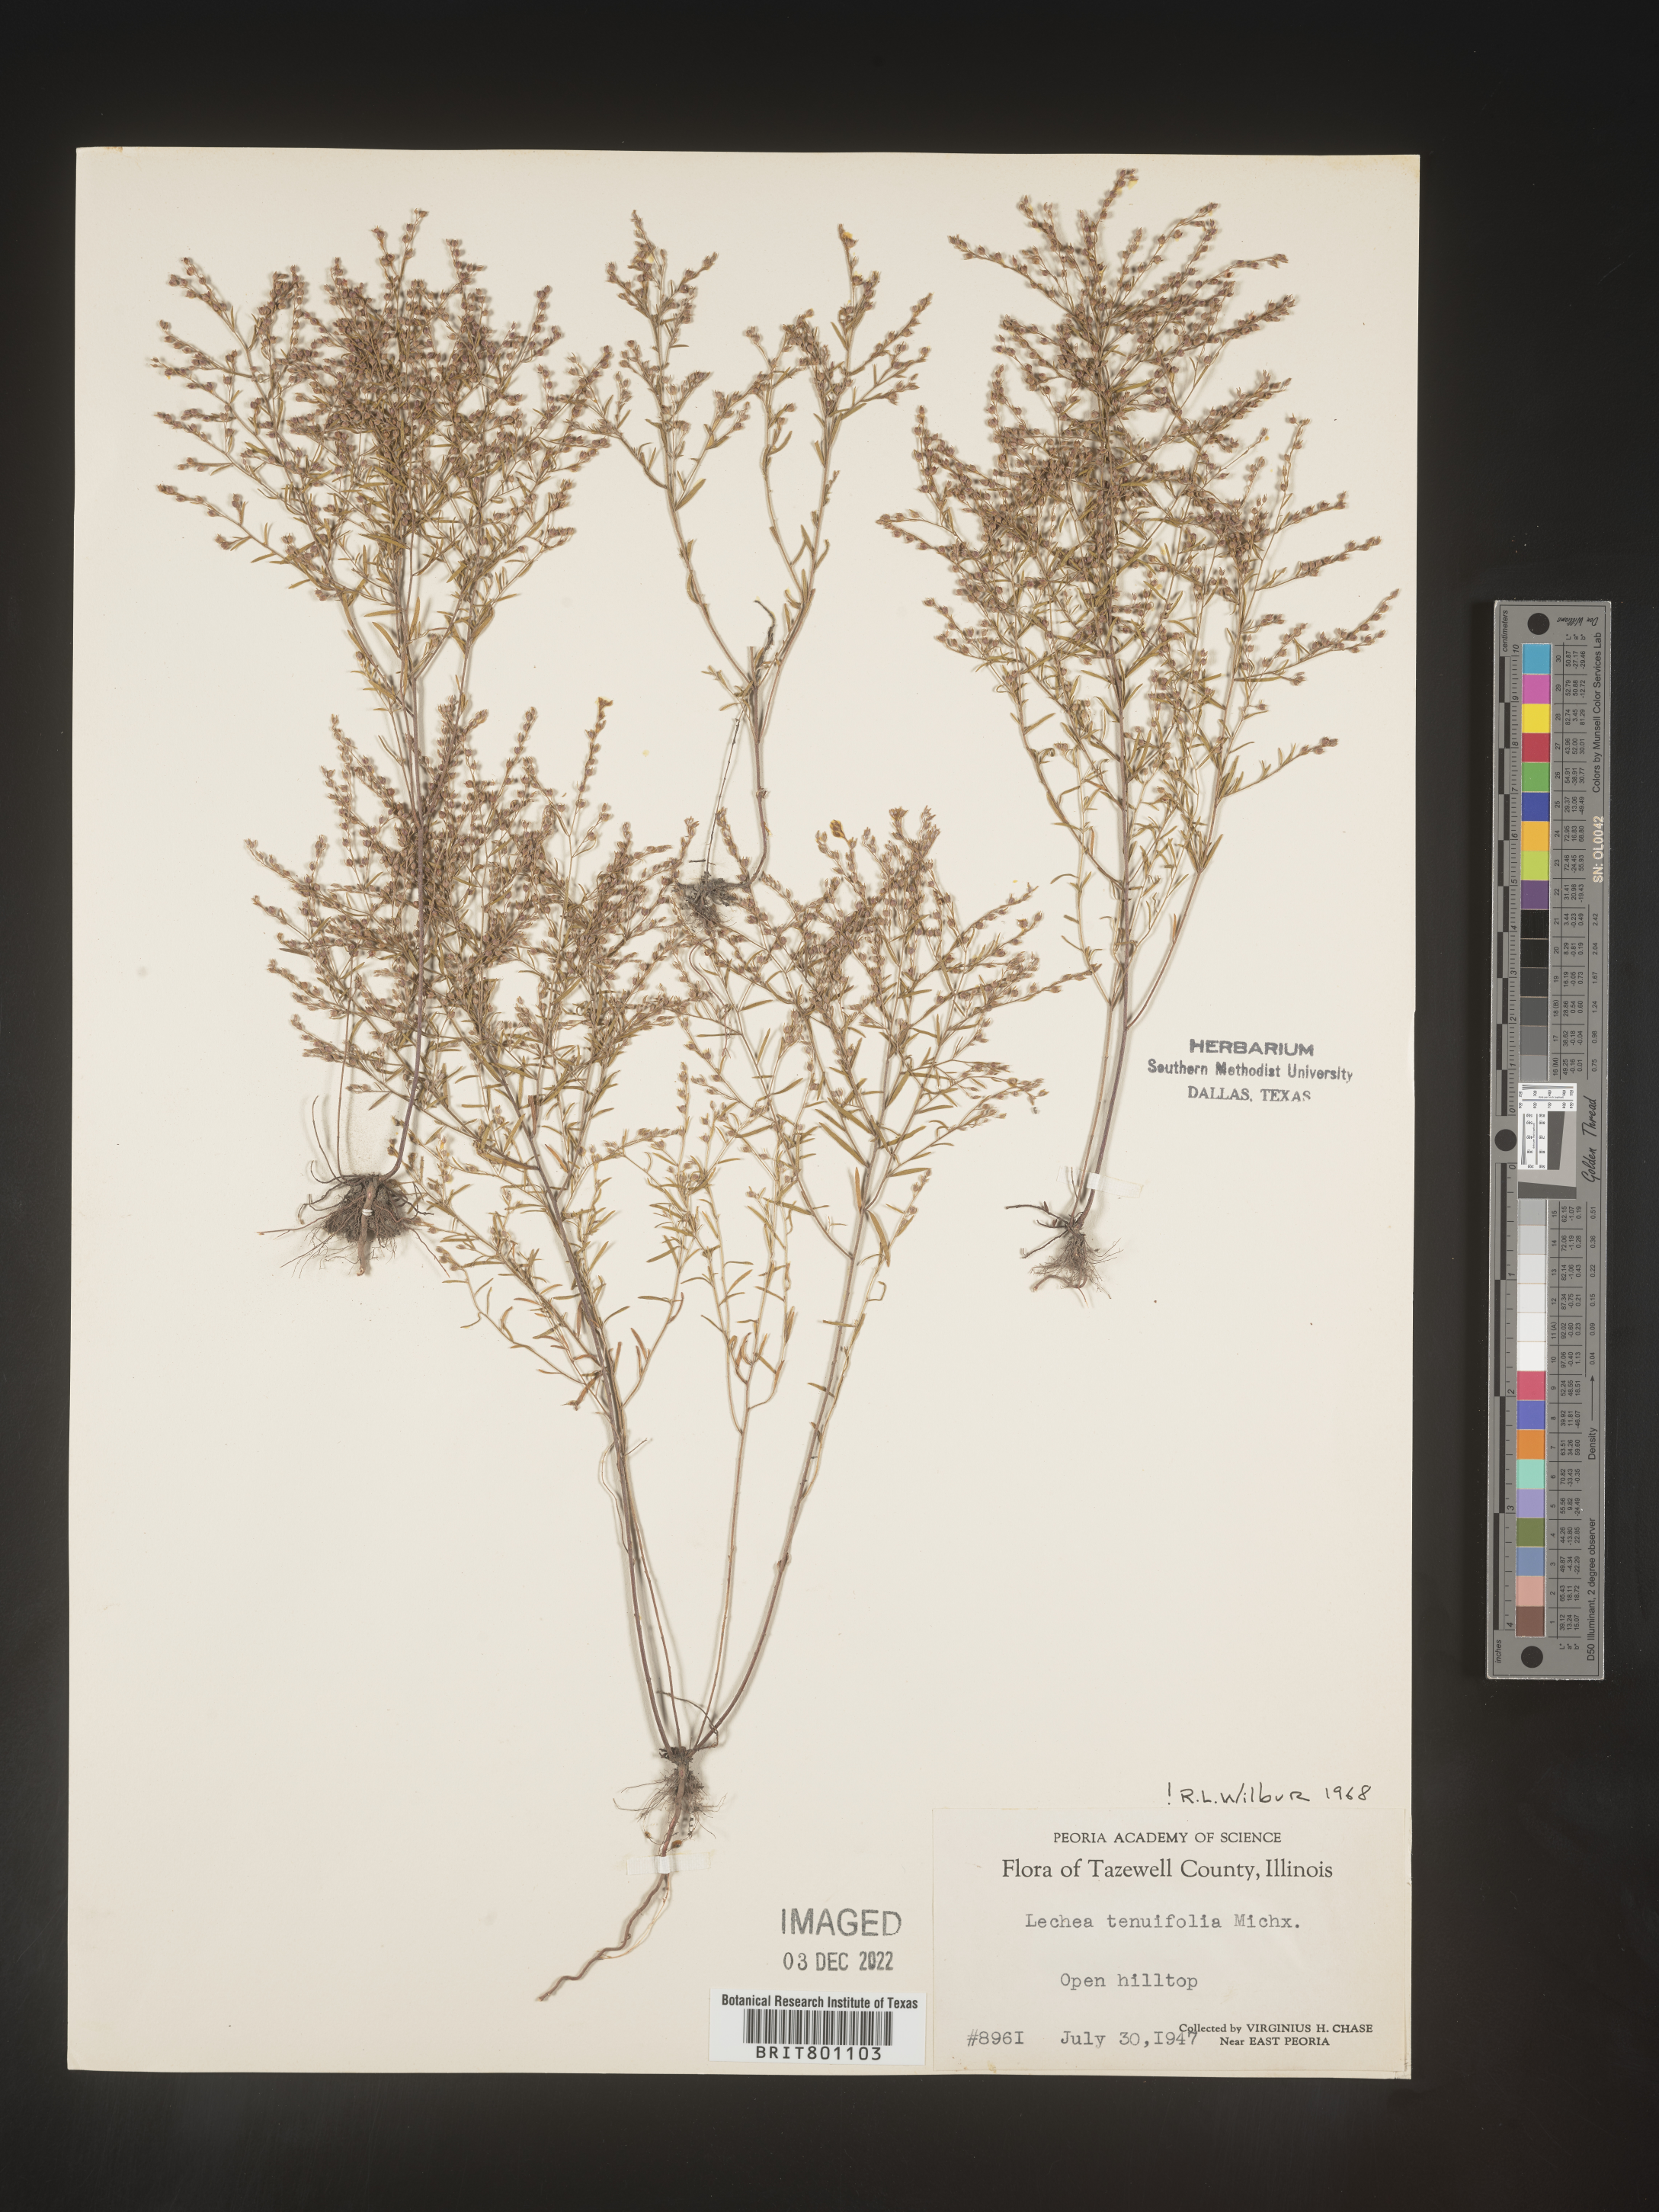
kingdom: Plantae
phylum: Tracheophyta
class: Magnoliopsida
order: Malvales
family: Cistaceae
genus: Lechea
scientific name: Lechea tenuifolia
